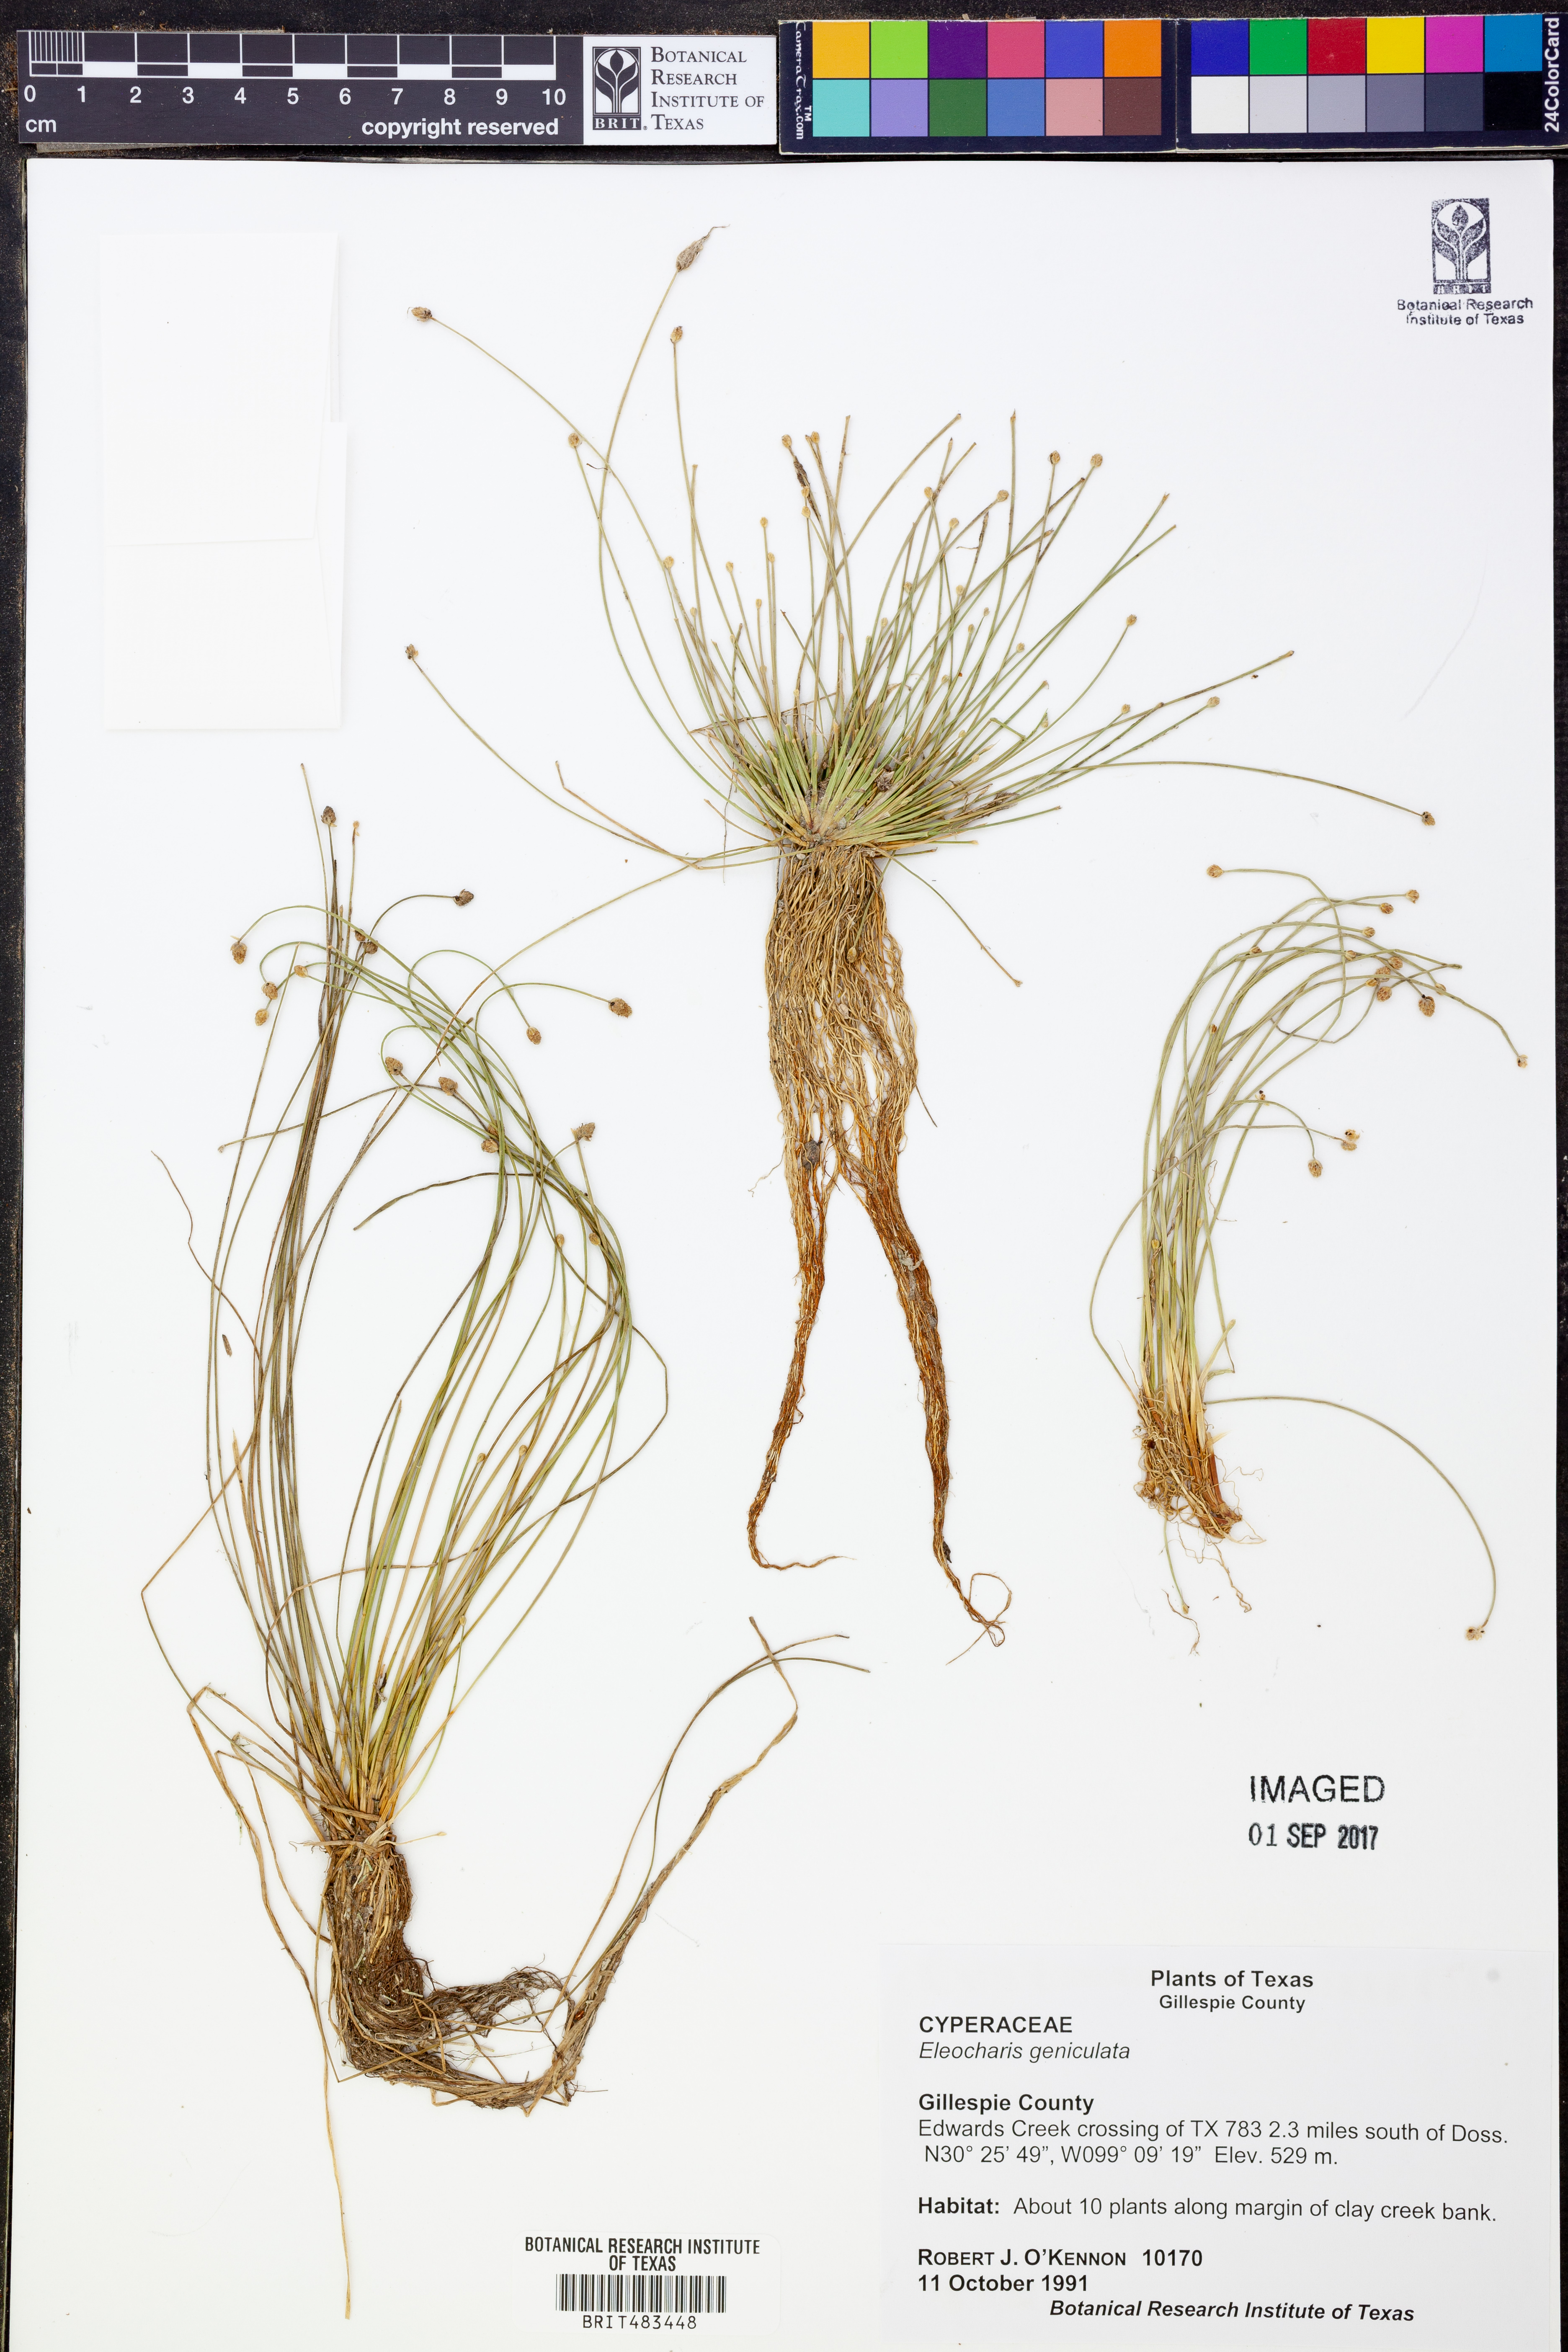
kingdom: Plantae
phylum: Tracheophyta
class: Liliopsida
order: Poales
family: Cyperaceae
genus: Eleocharis
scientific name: Eleocharis geniculata
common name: Canada spikesedge
